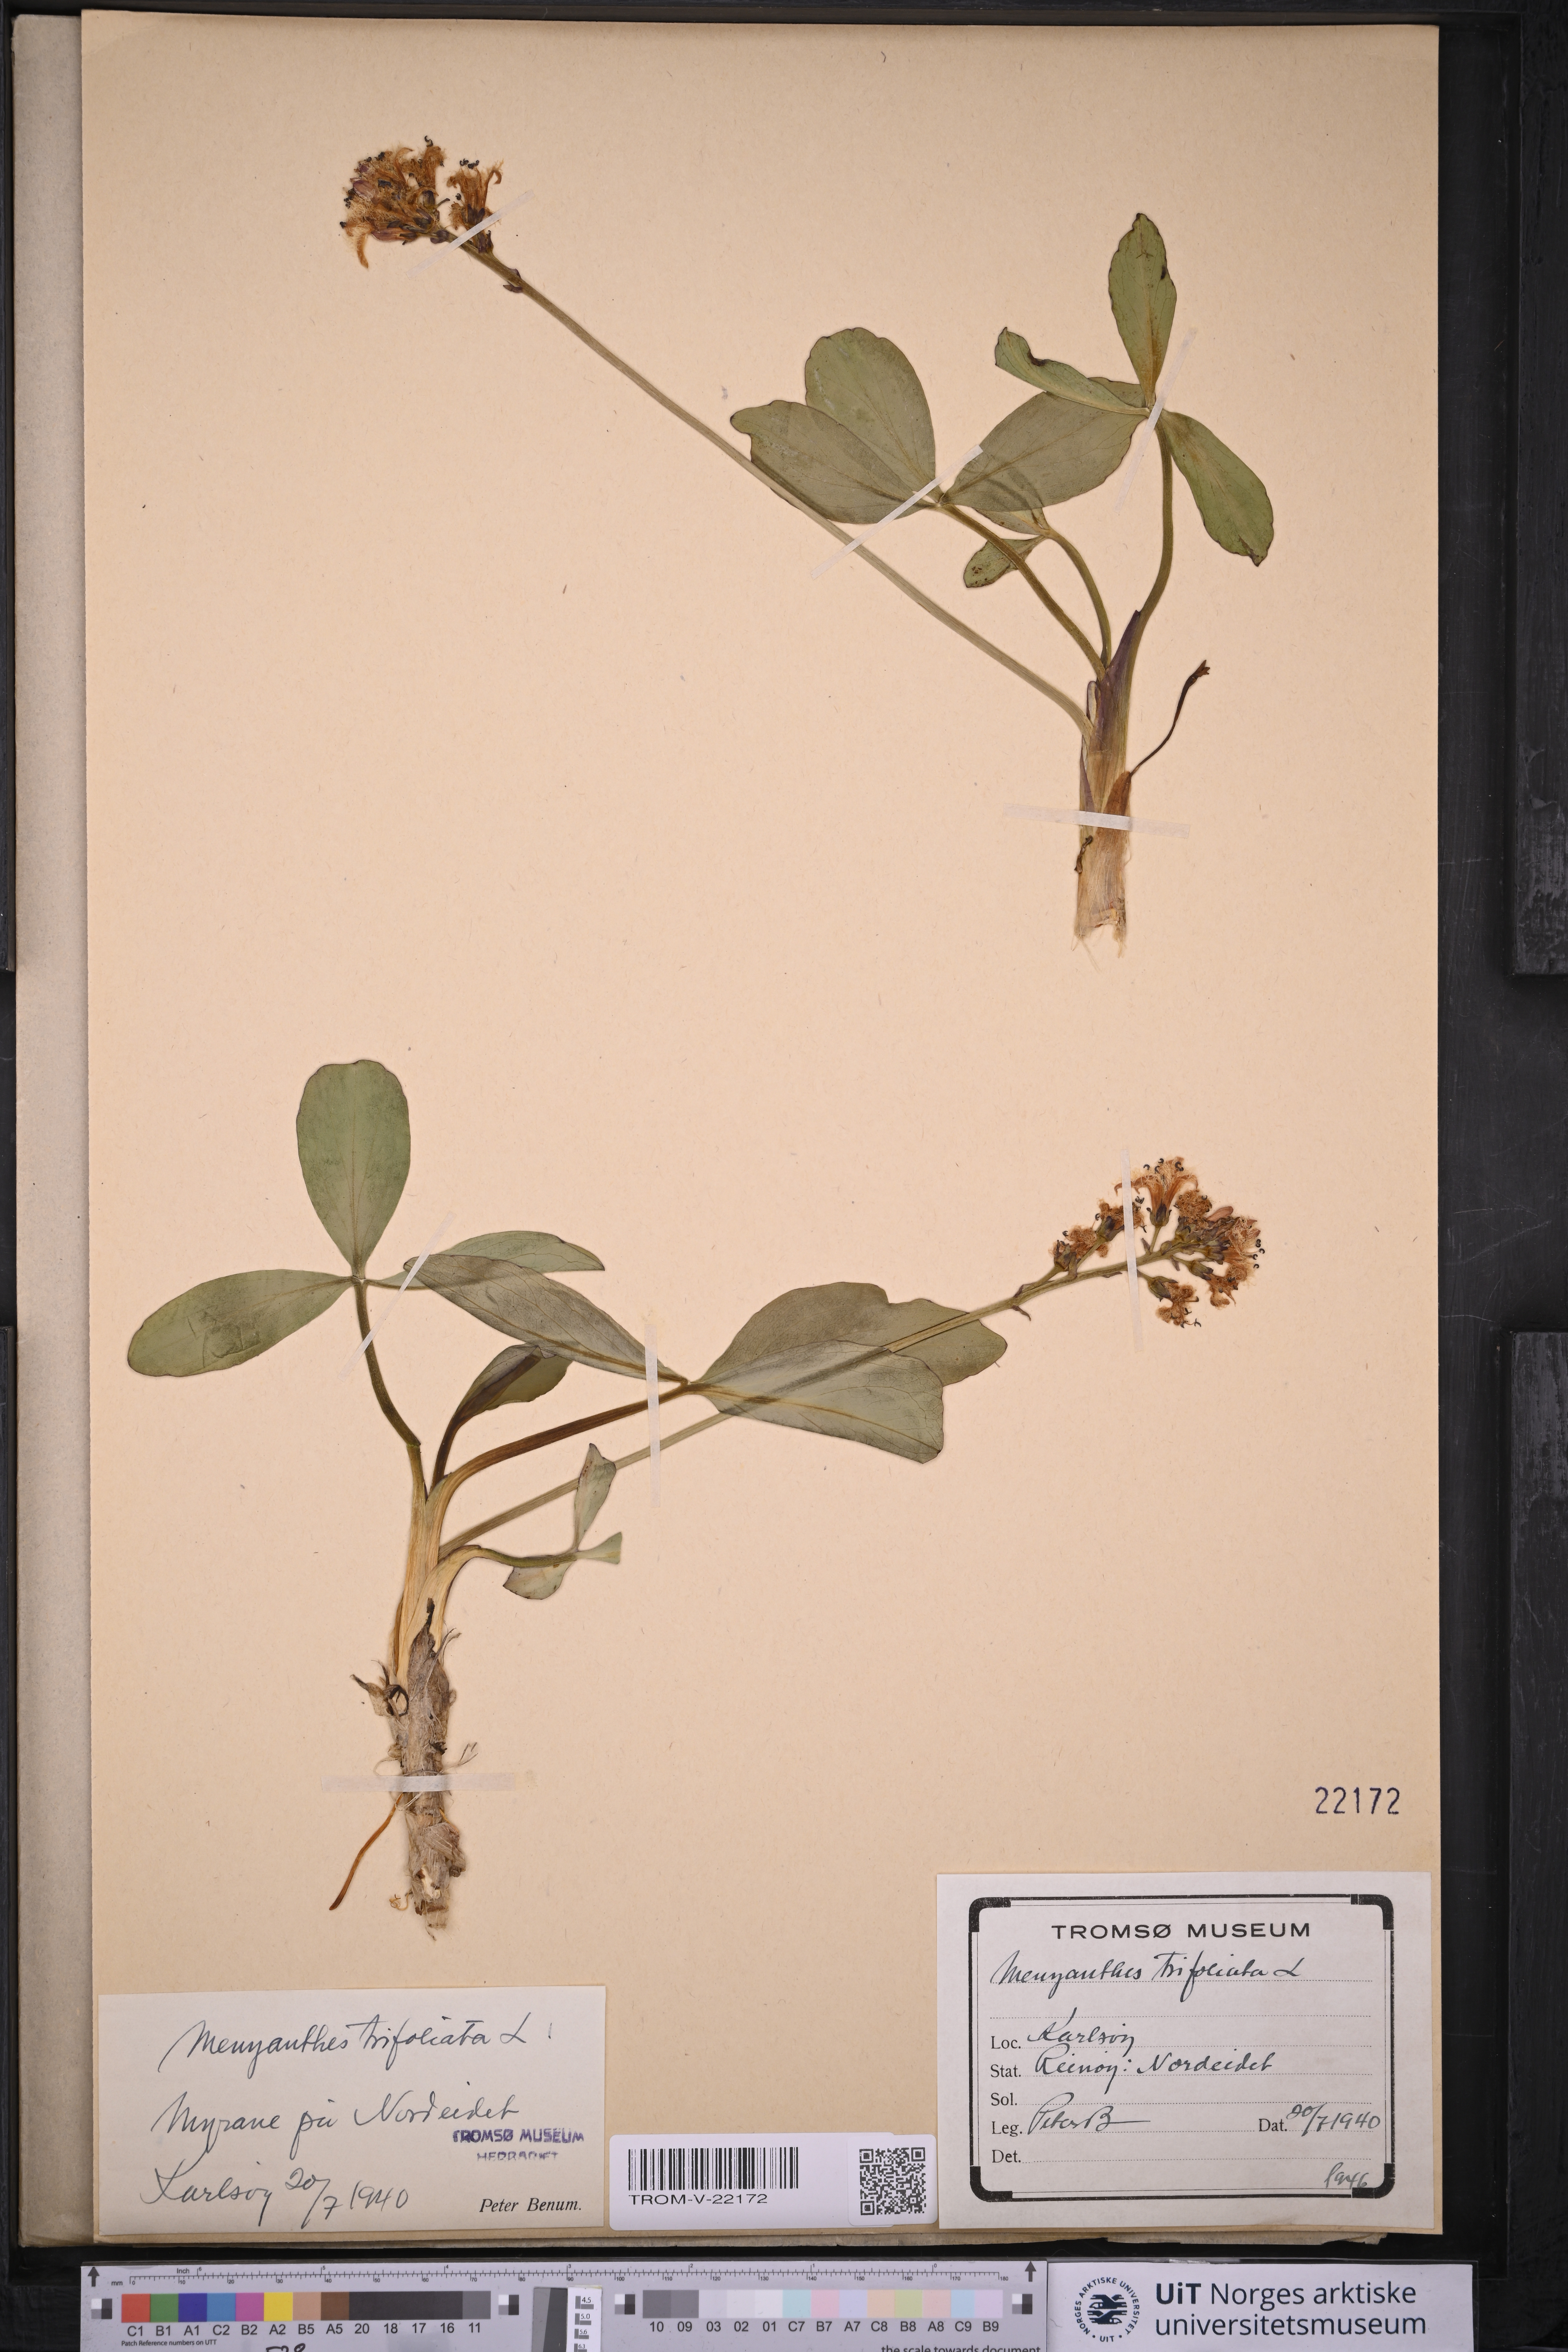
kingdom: Plantae
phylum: Tracheophyta
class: Magnoliopsida
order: Asterales
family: Menyanthaceae
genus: Menyanthes
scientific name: Menyanthes trifoliata
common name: Bogbean
